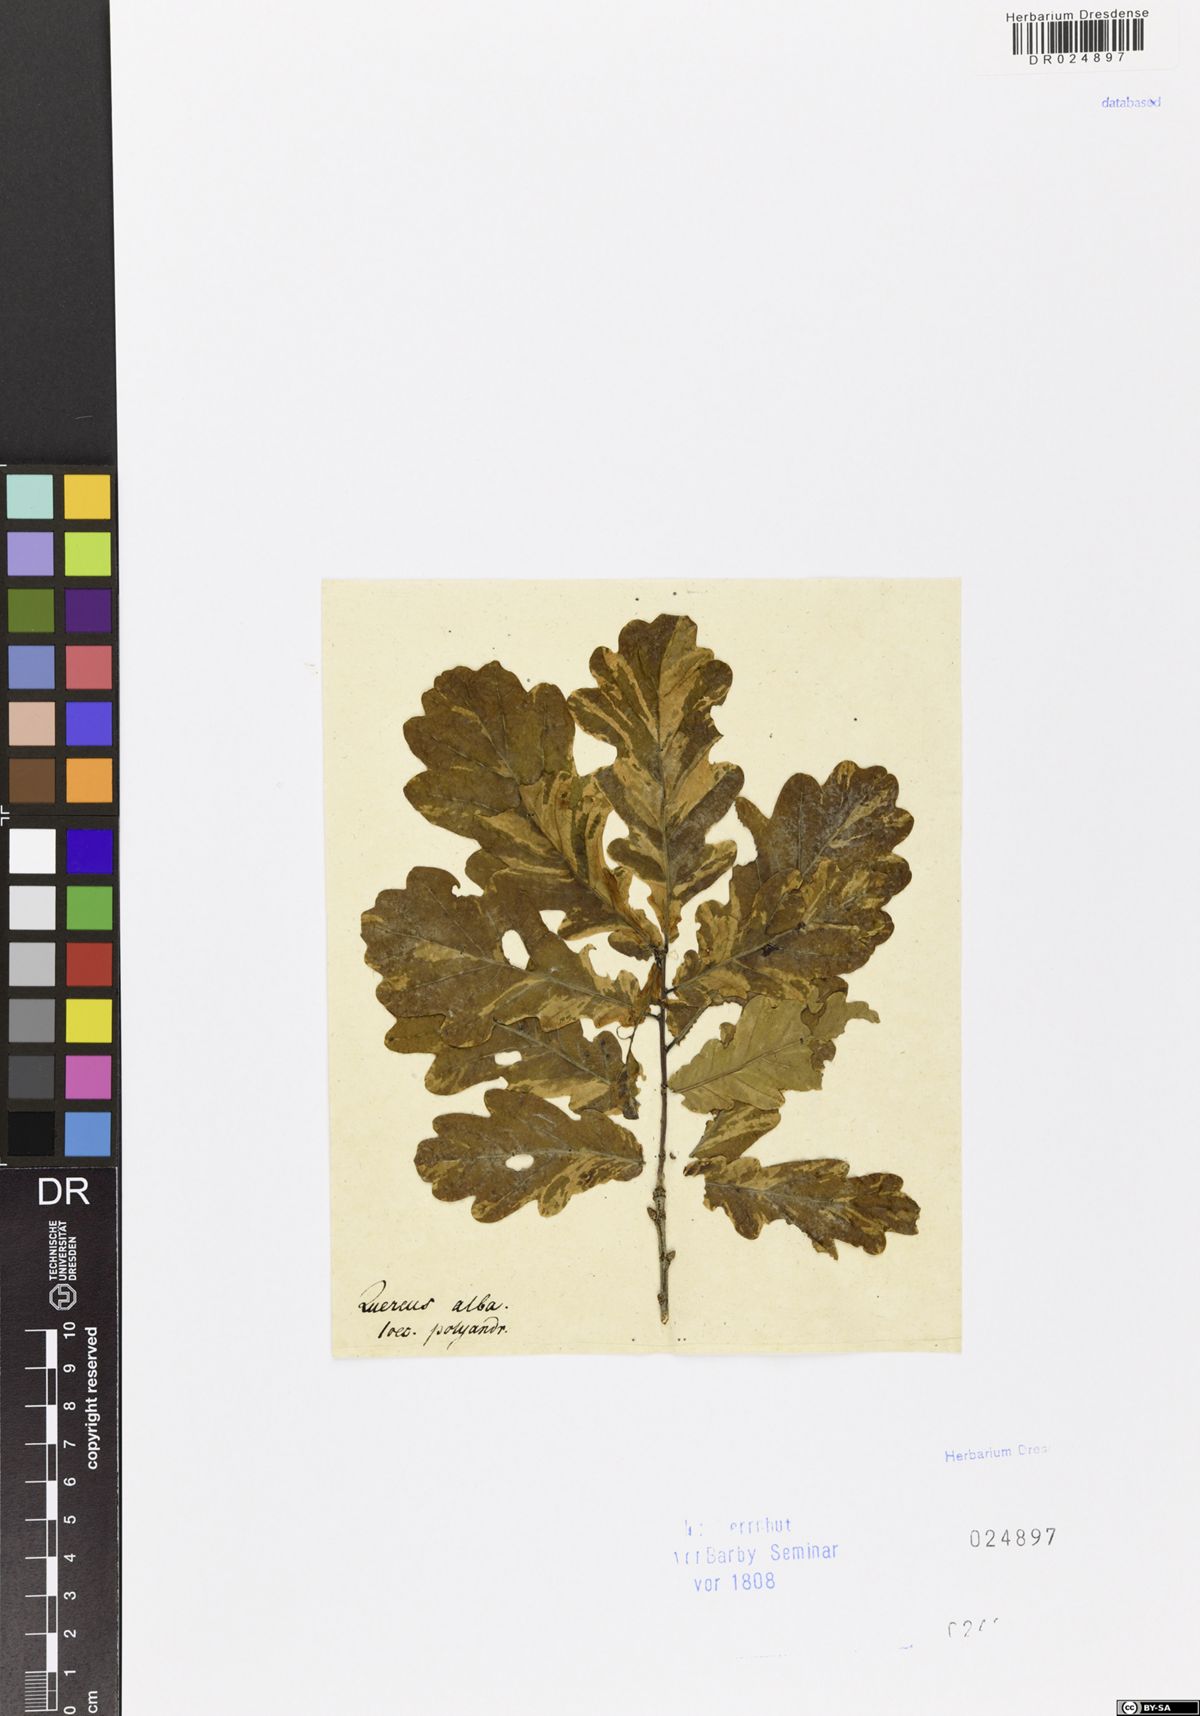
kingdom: Plantae
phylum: Tracheophyta
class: Magnoliopsida
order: Fagales
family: Fagaceae
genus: Quercus
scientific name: Quercus robur
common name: Pedunculate oak
